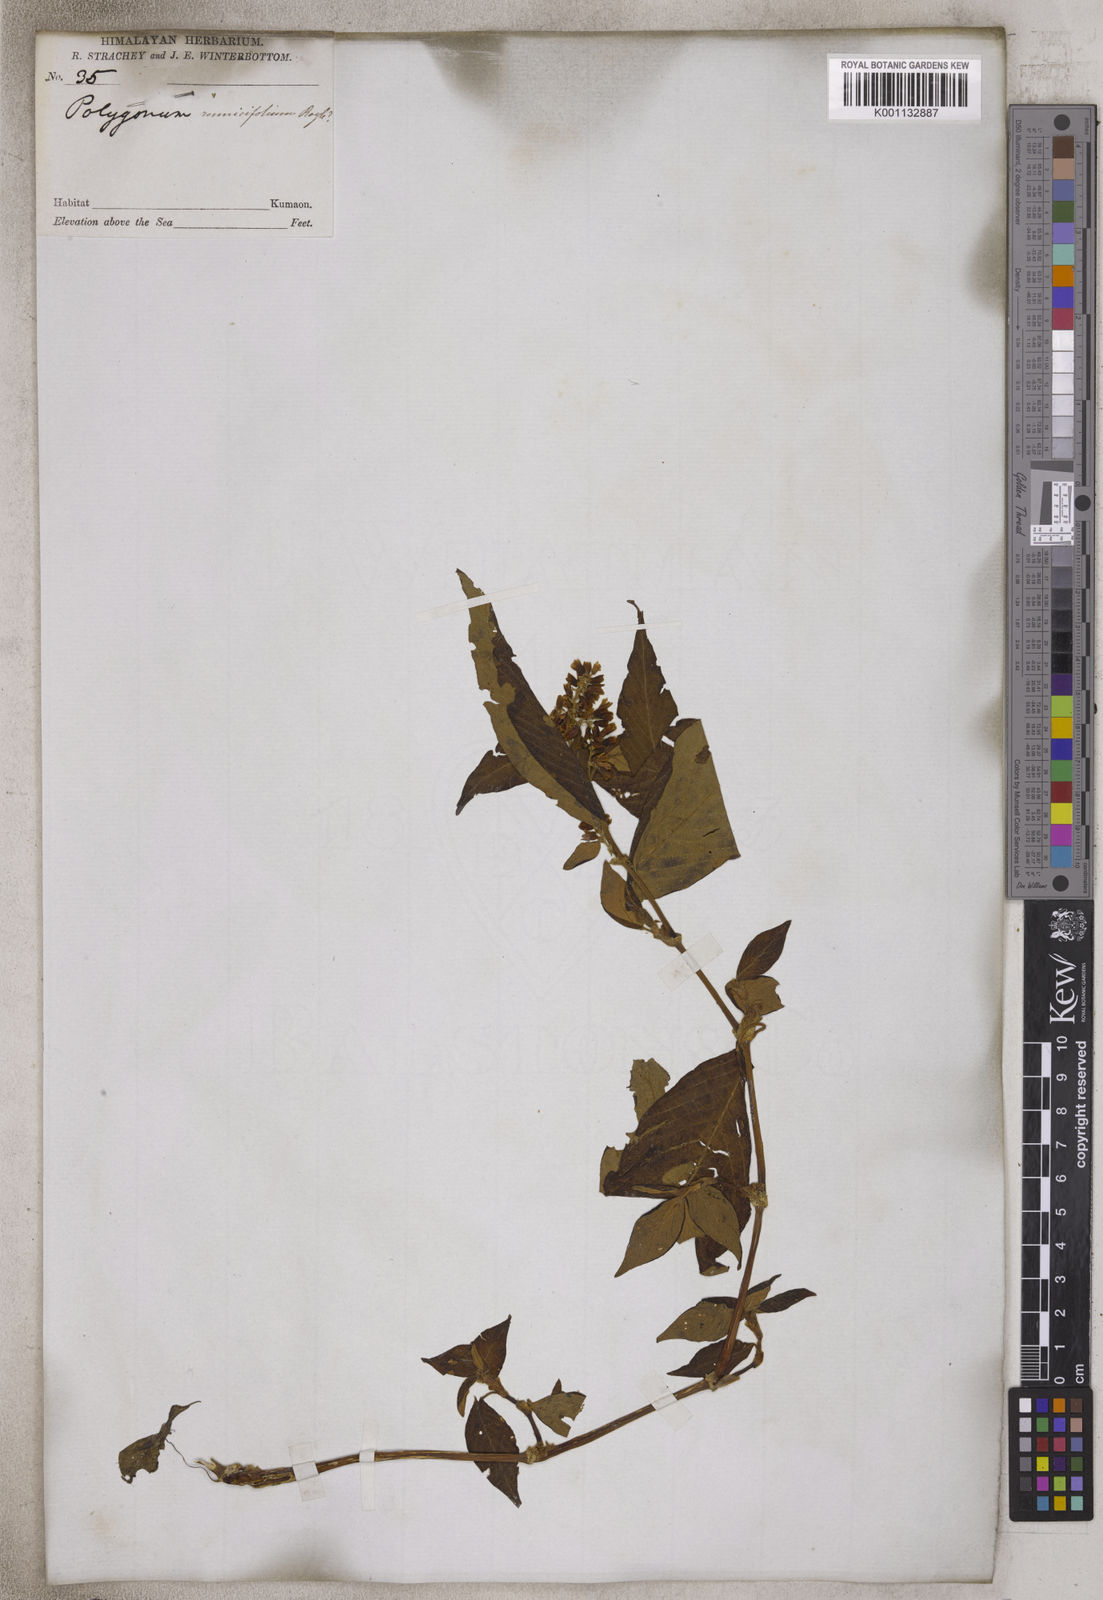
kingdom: Plantae
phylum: Tracheophyta
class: Magnoliopsida
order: Caryophyllales
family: Polygonaceae
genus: Koenigia
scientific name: Koenigia rumicifolia
